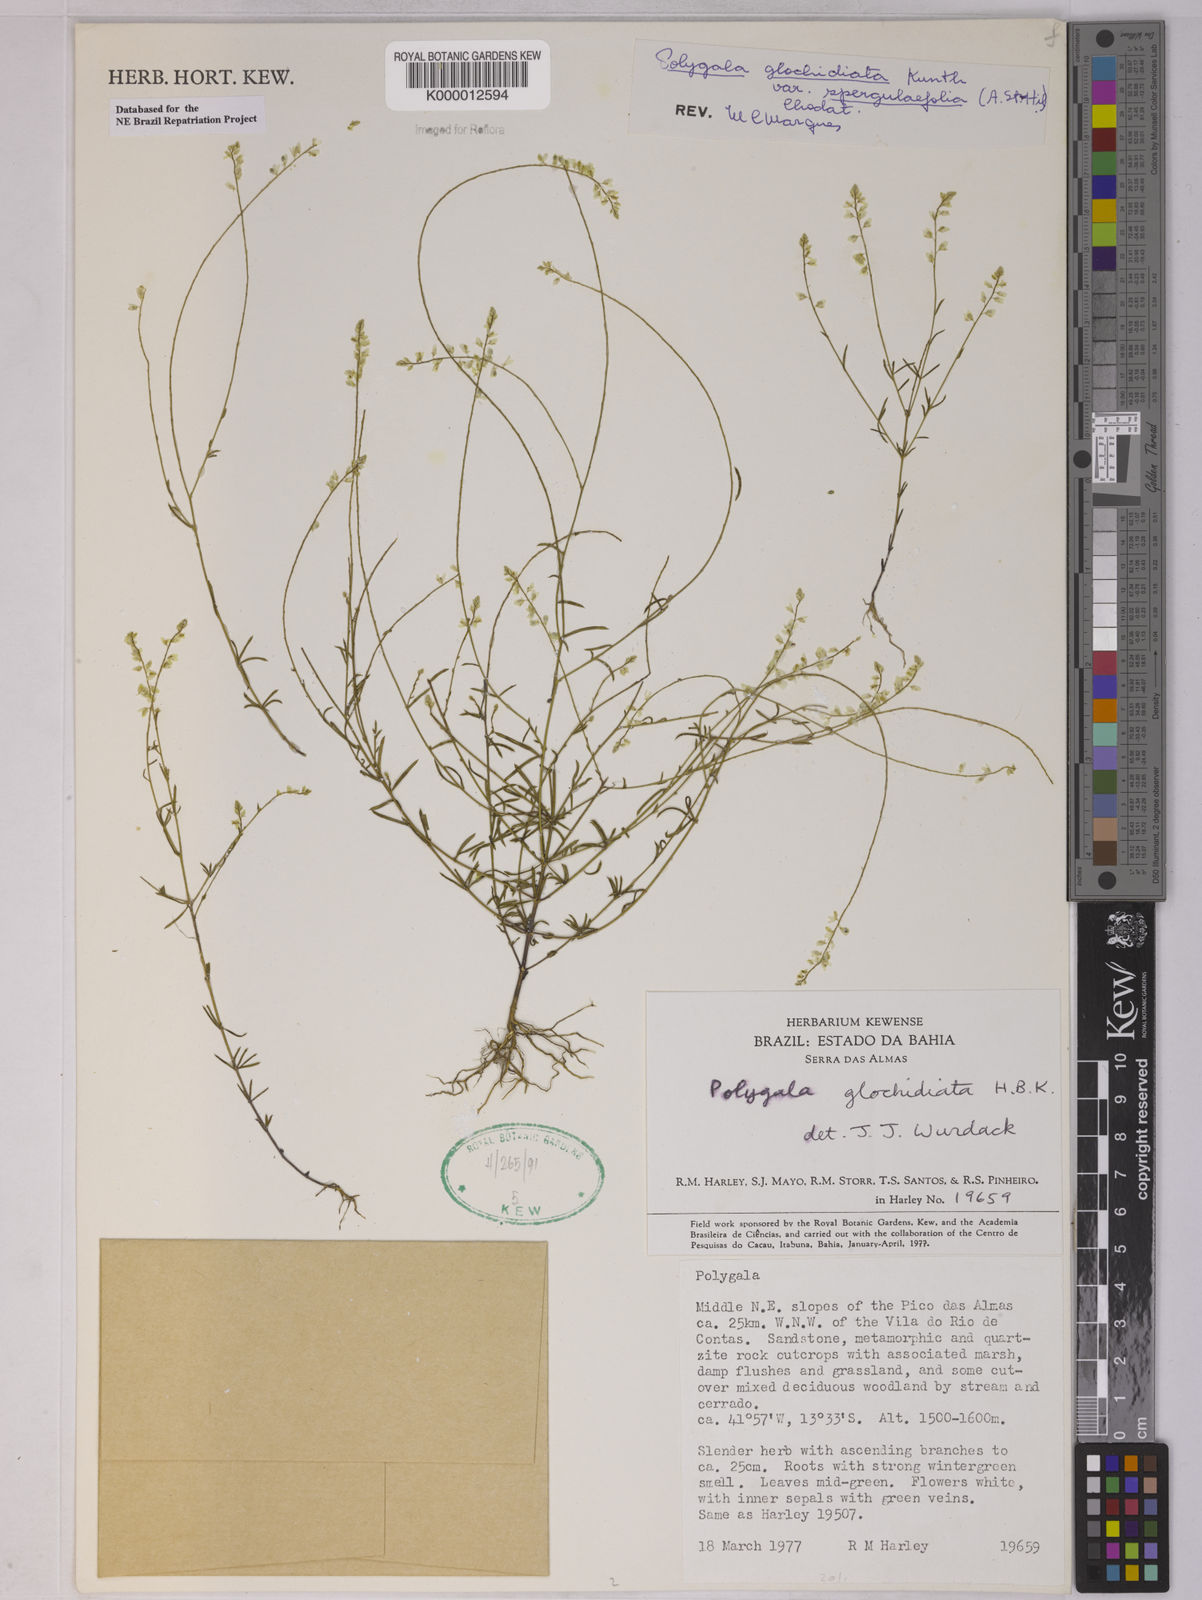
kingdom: Plantae
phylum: Tracheophyta
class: Magnoliopsida
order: Fabales
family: Polygalaceae
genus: Polygala
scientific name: Polygala glochidiata
